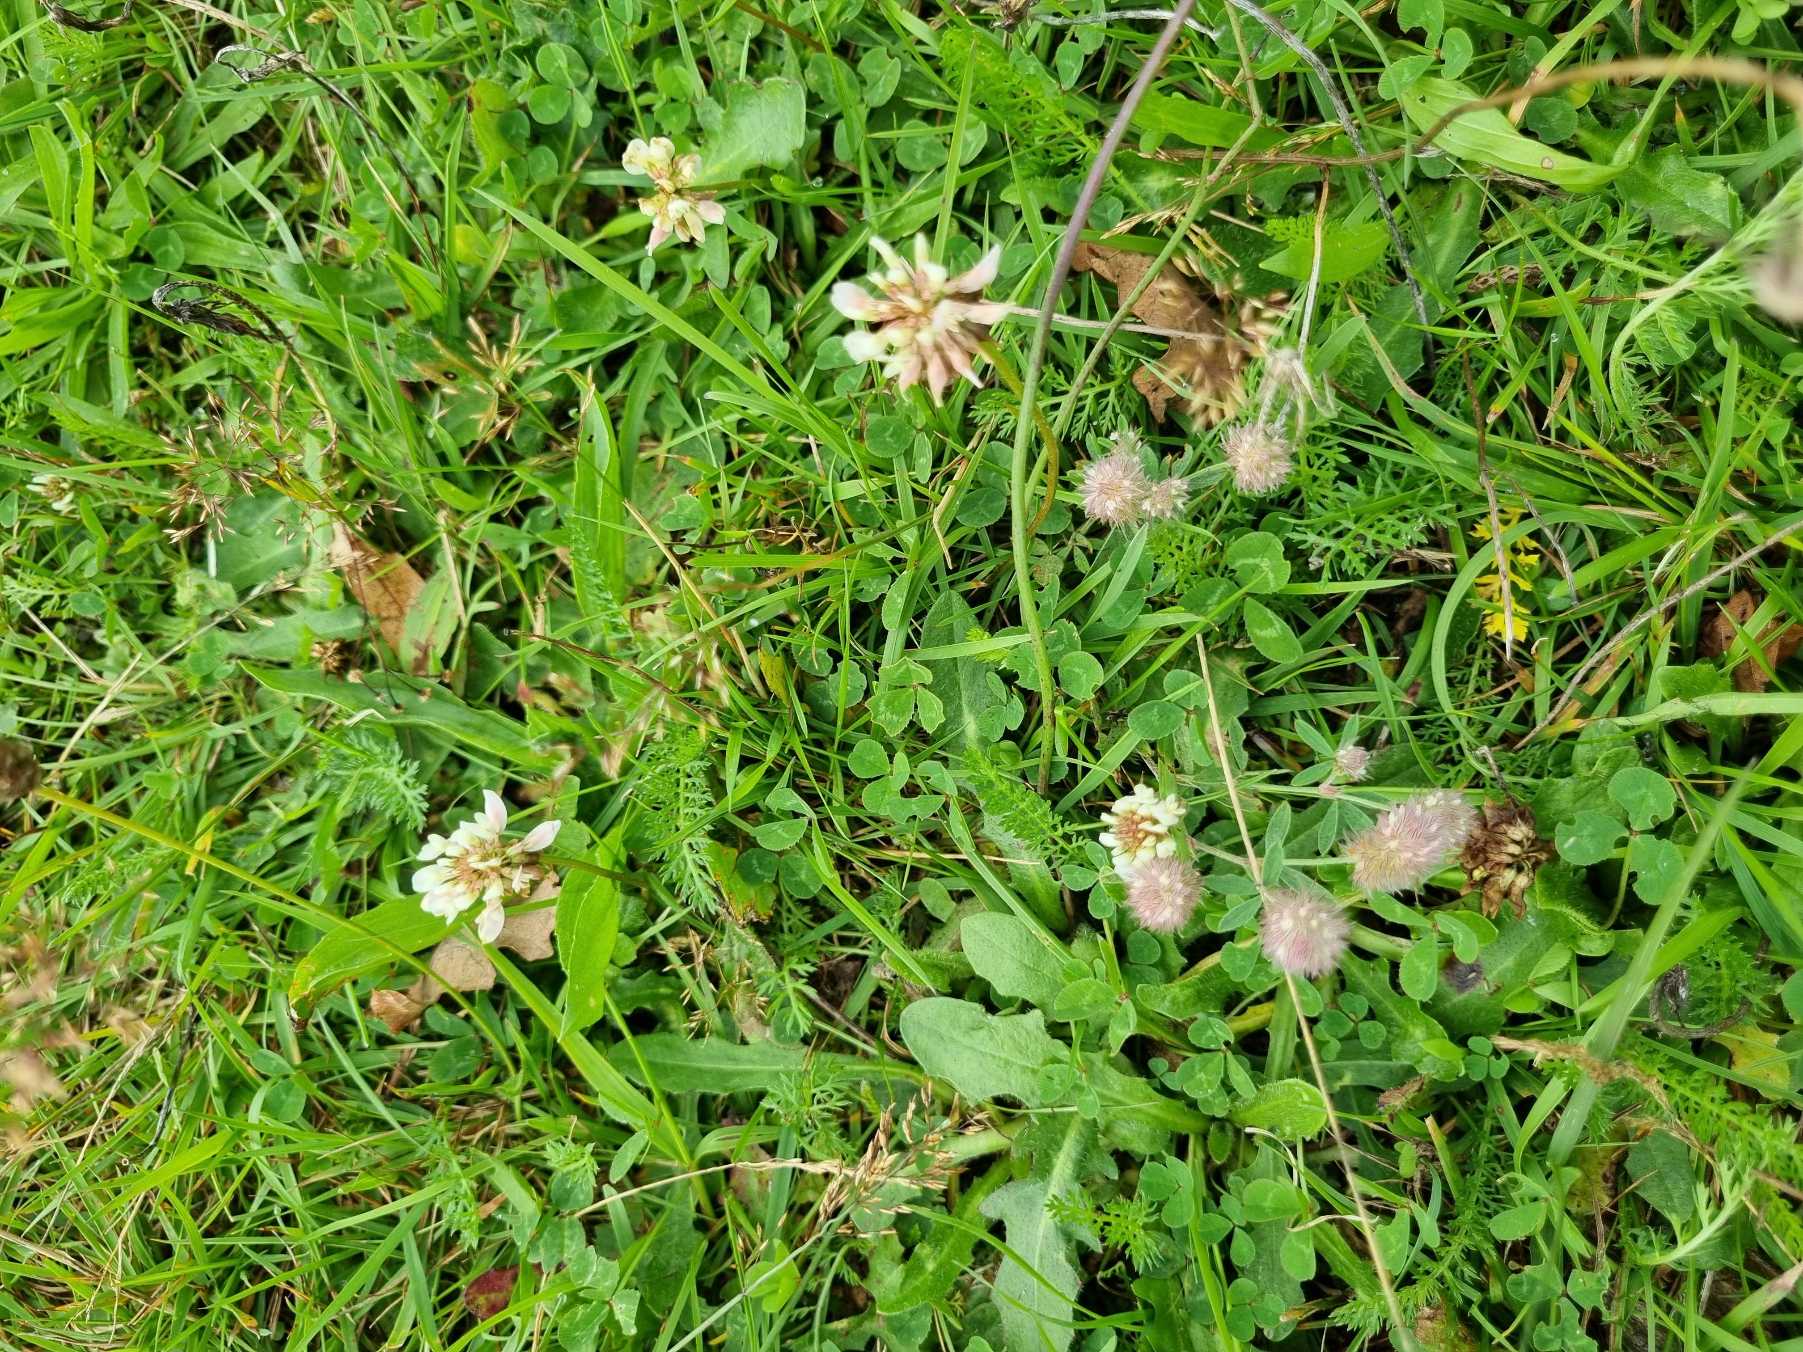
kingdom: Plantae
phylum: Tracheophyta
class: Magnoliopsida
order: Fabales
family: Fabaceae
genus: Trifolium
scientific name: Trifolium repens
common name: Hvid-kløver
